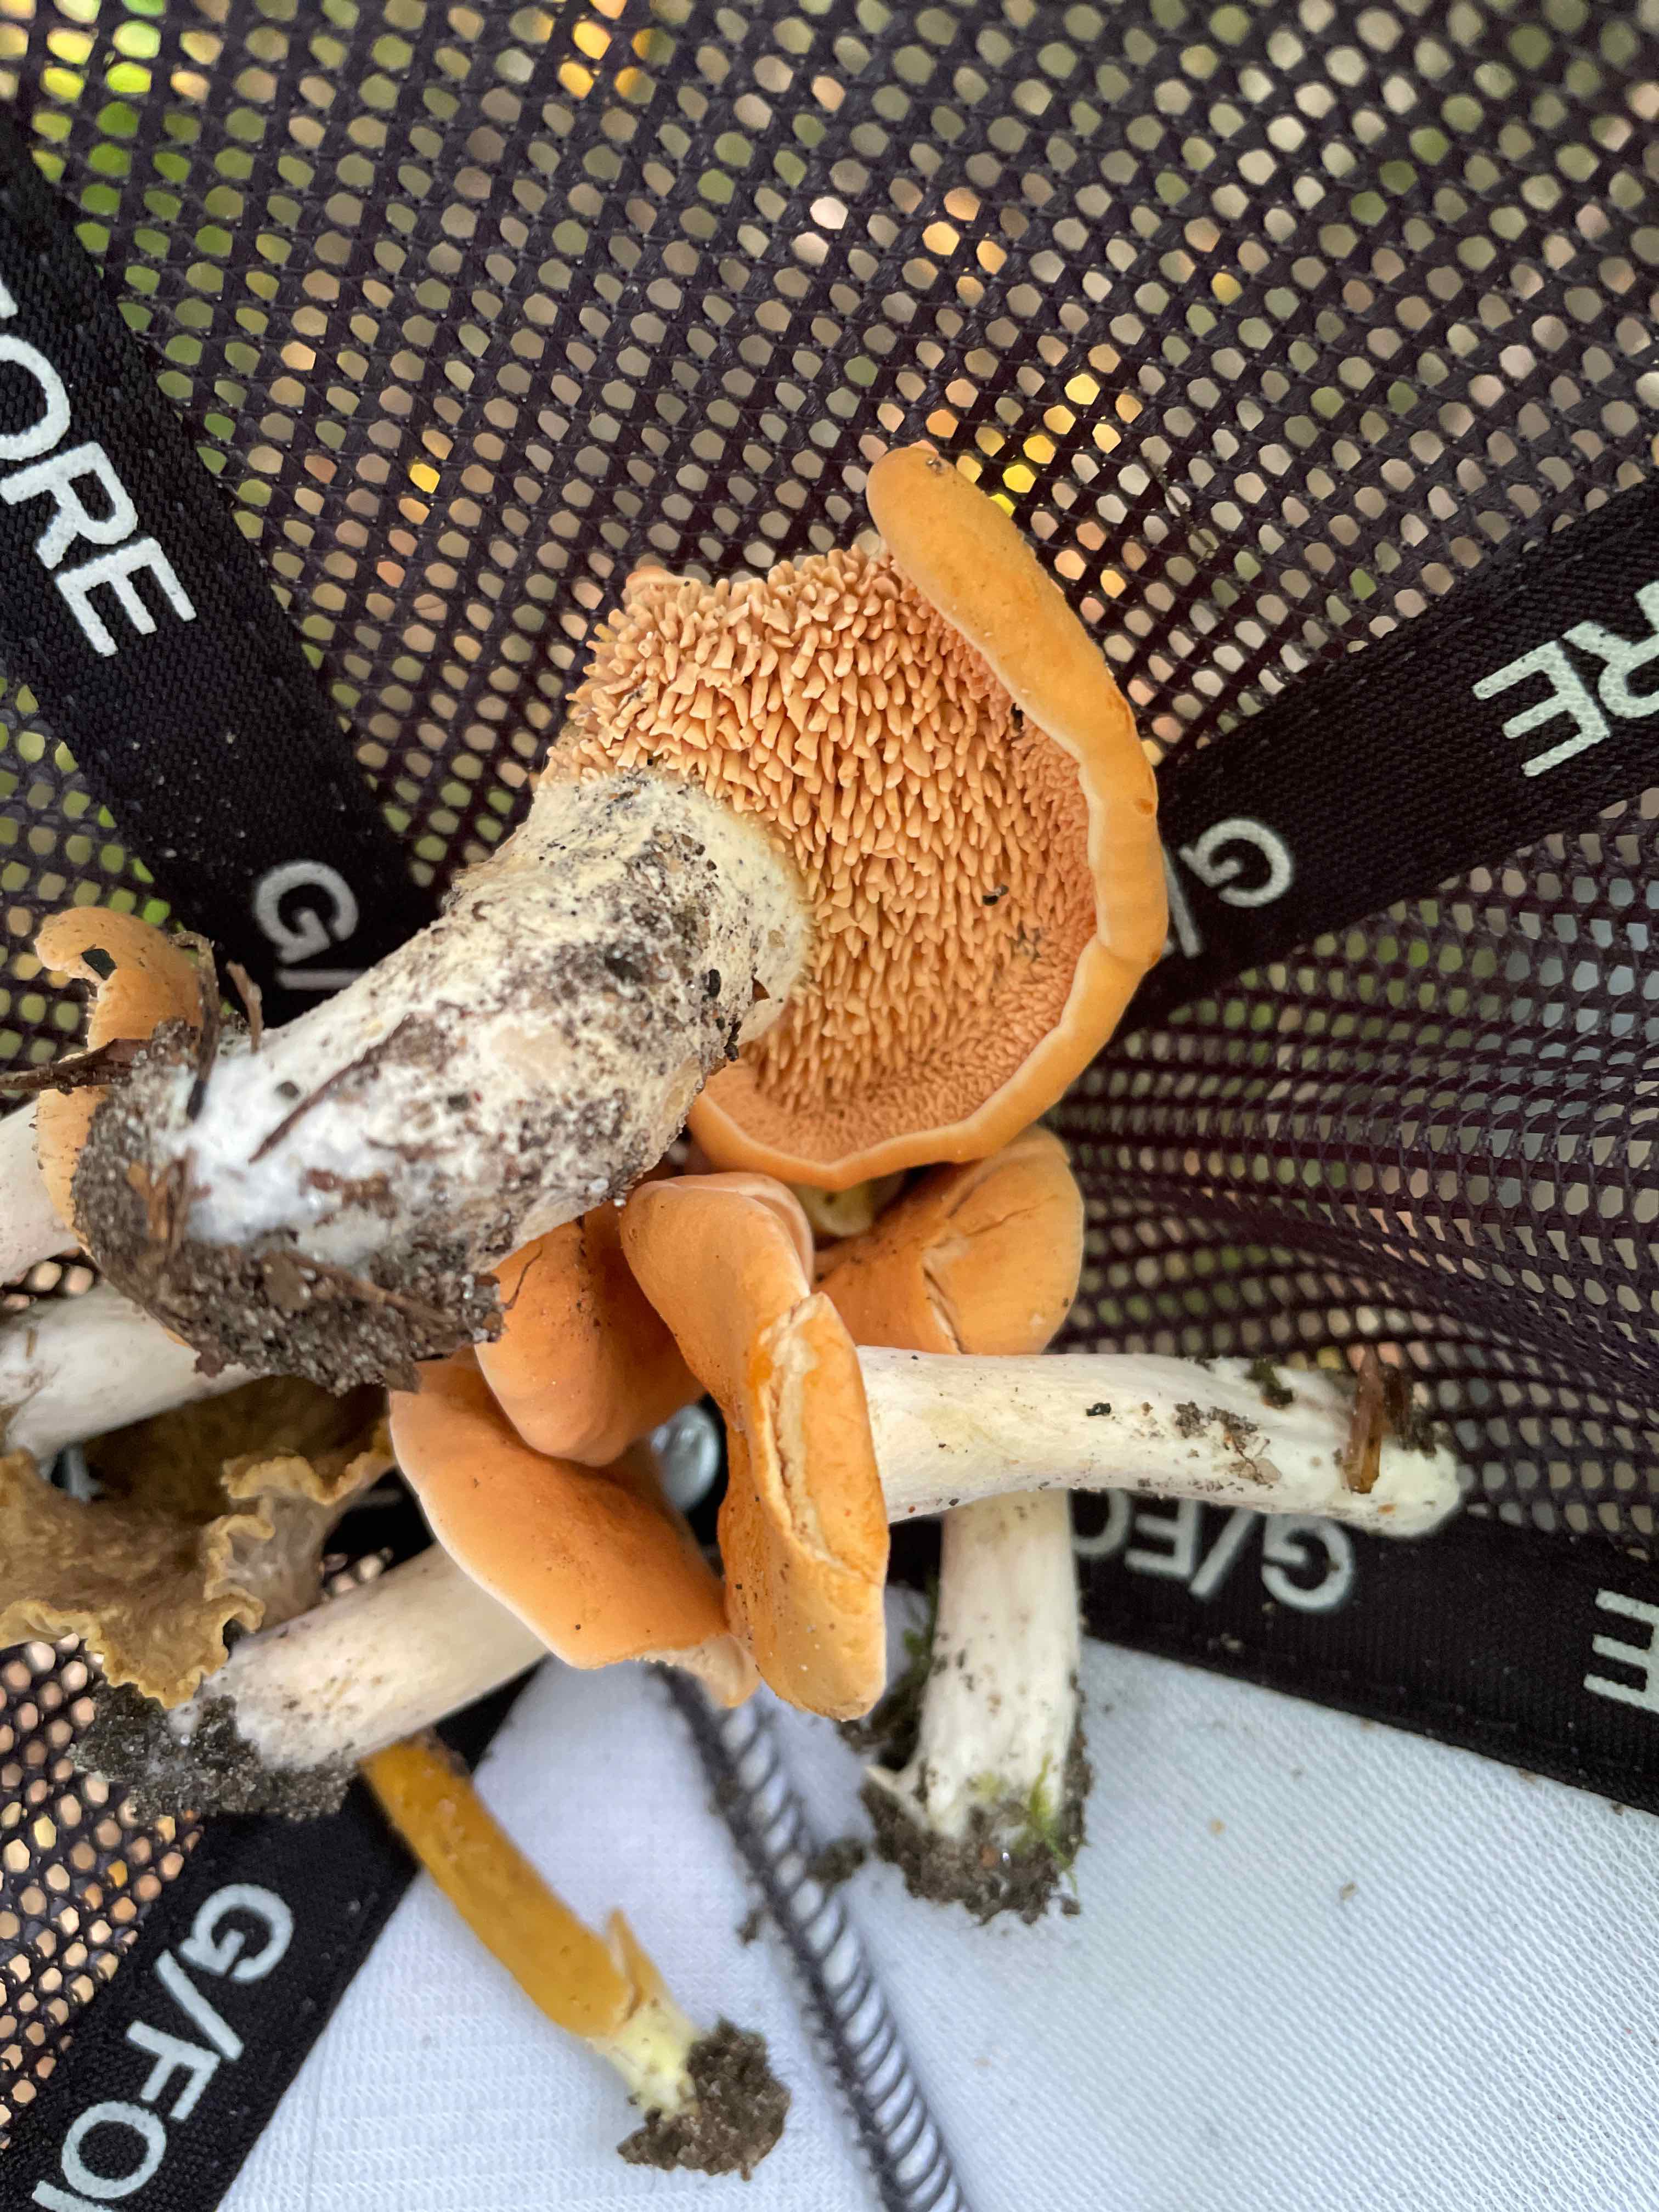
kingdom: Fungi
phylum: Basidiomycota
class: Agaricomycetes
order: Cantharellales
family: Hydnaceae
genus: Hydnum
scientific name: Hydnum
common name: pigsvamp
